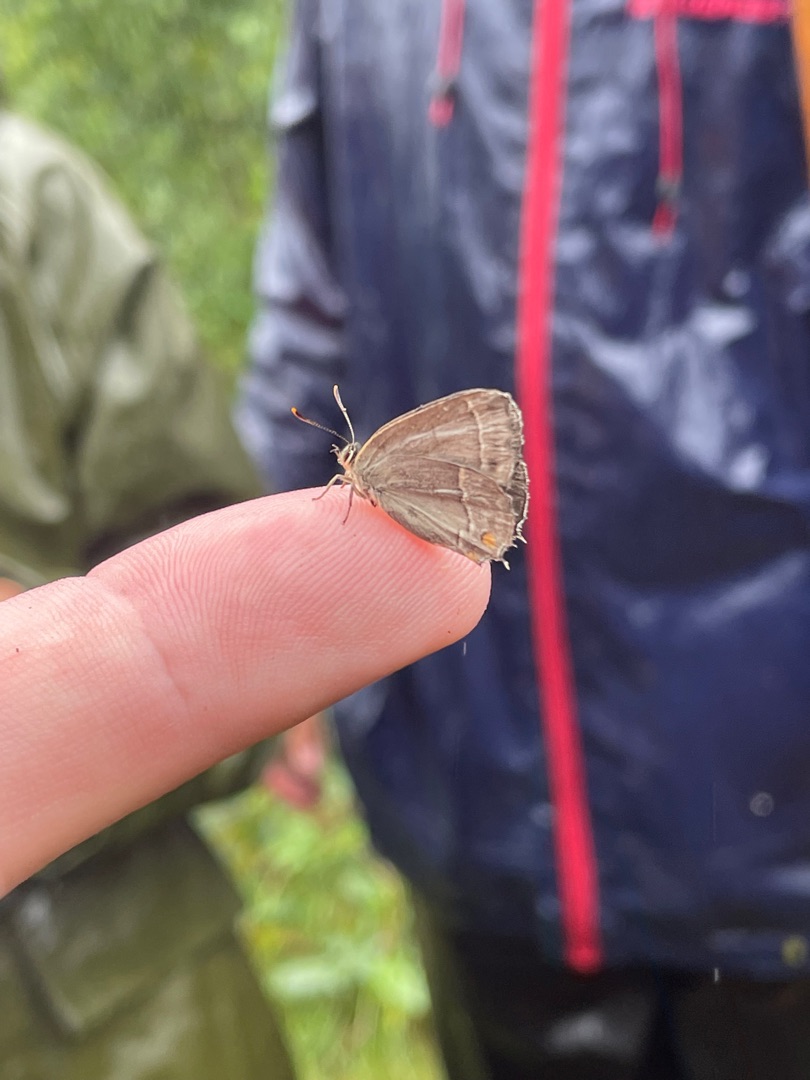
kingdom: Animalia
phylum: Arthropoda
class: Insecta
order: Lepidoptera
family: Lycaenidae
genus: Quercusia
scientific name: Quercusia quercus
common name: Blåhale
